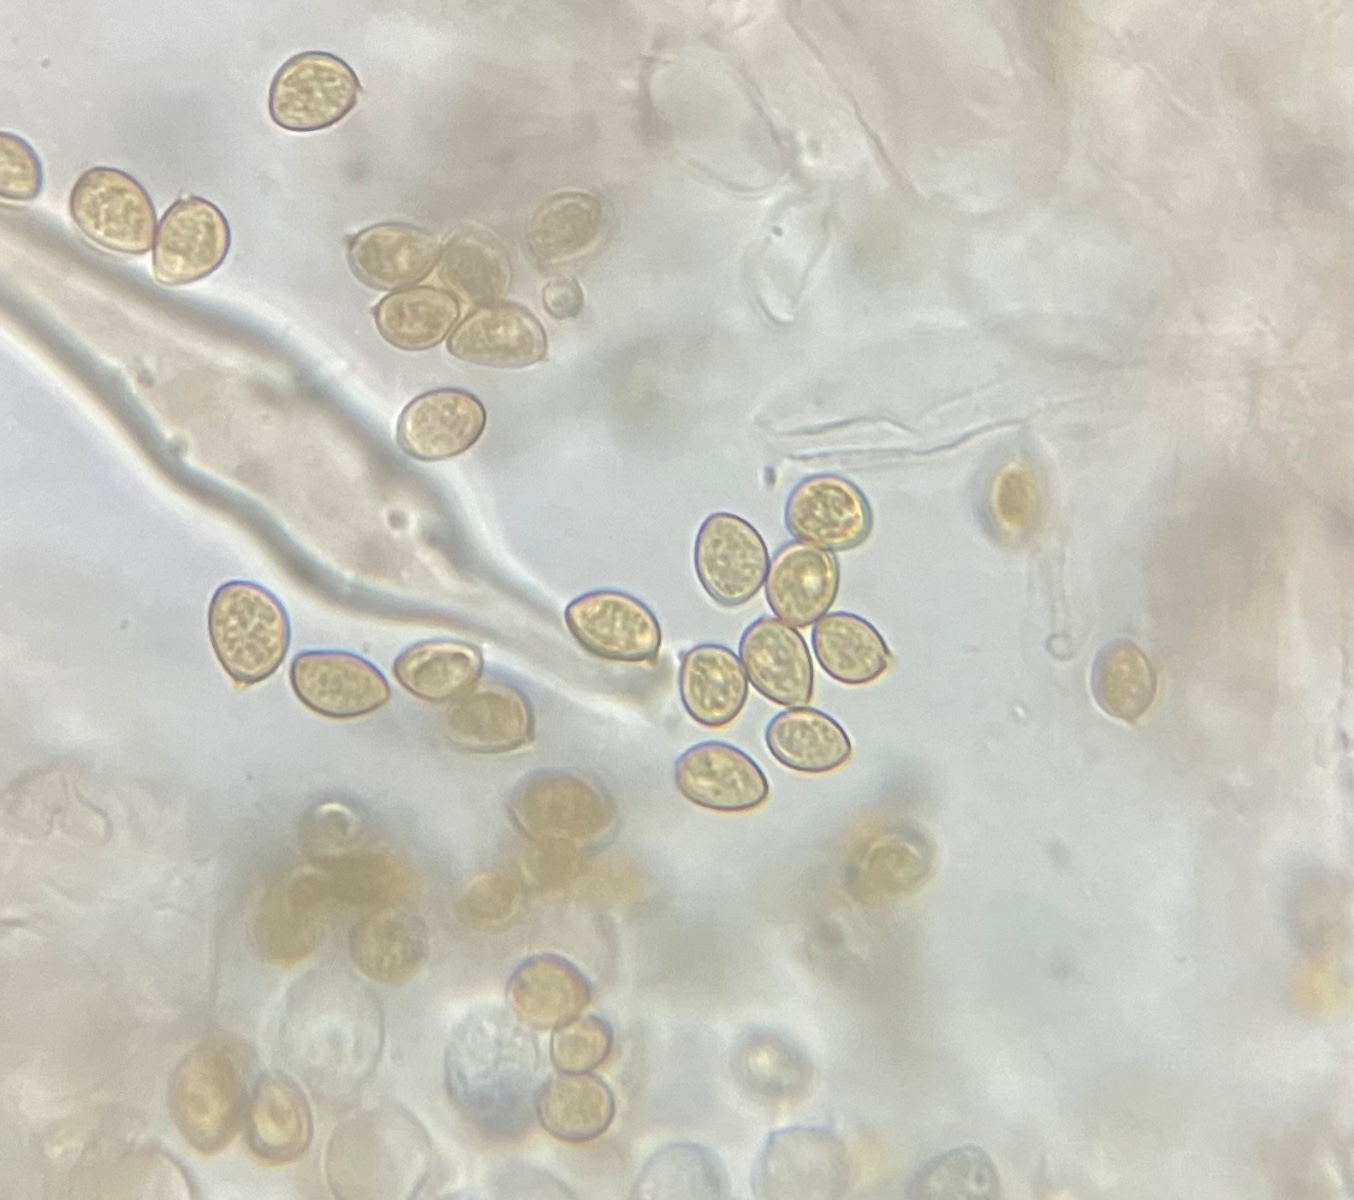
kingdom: Fungi
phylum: Basidiomycota
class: Agaricomycetes
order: Agaricales
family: Inocybaceae
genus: Inocybe
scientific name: Inocybe
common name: trævlhat
